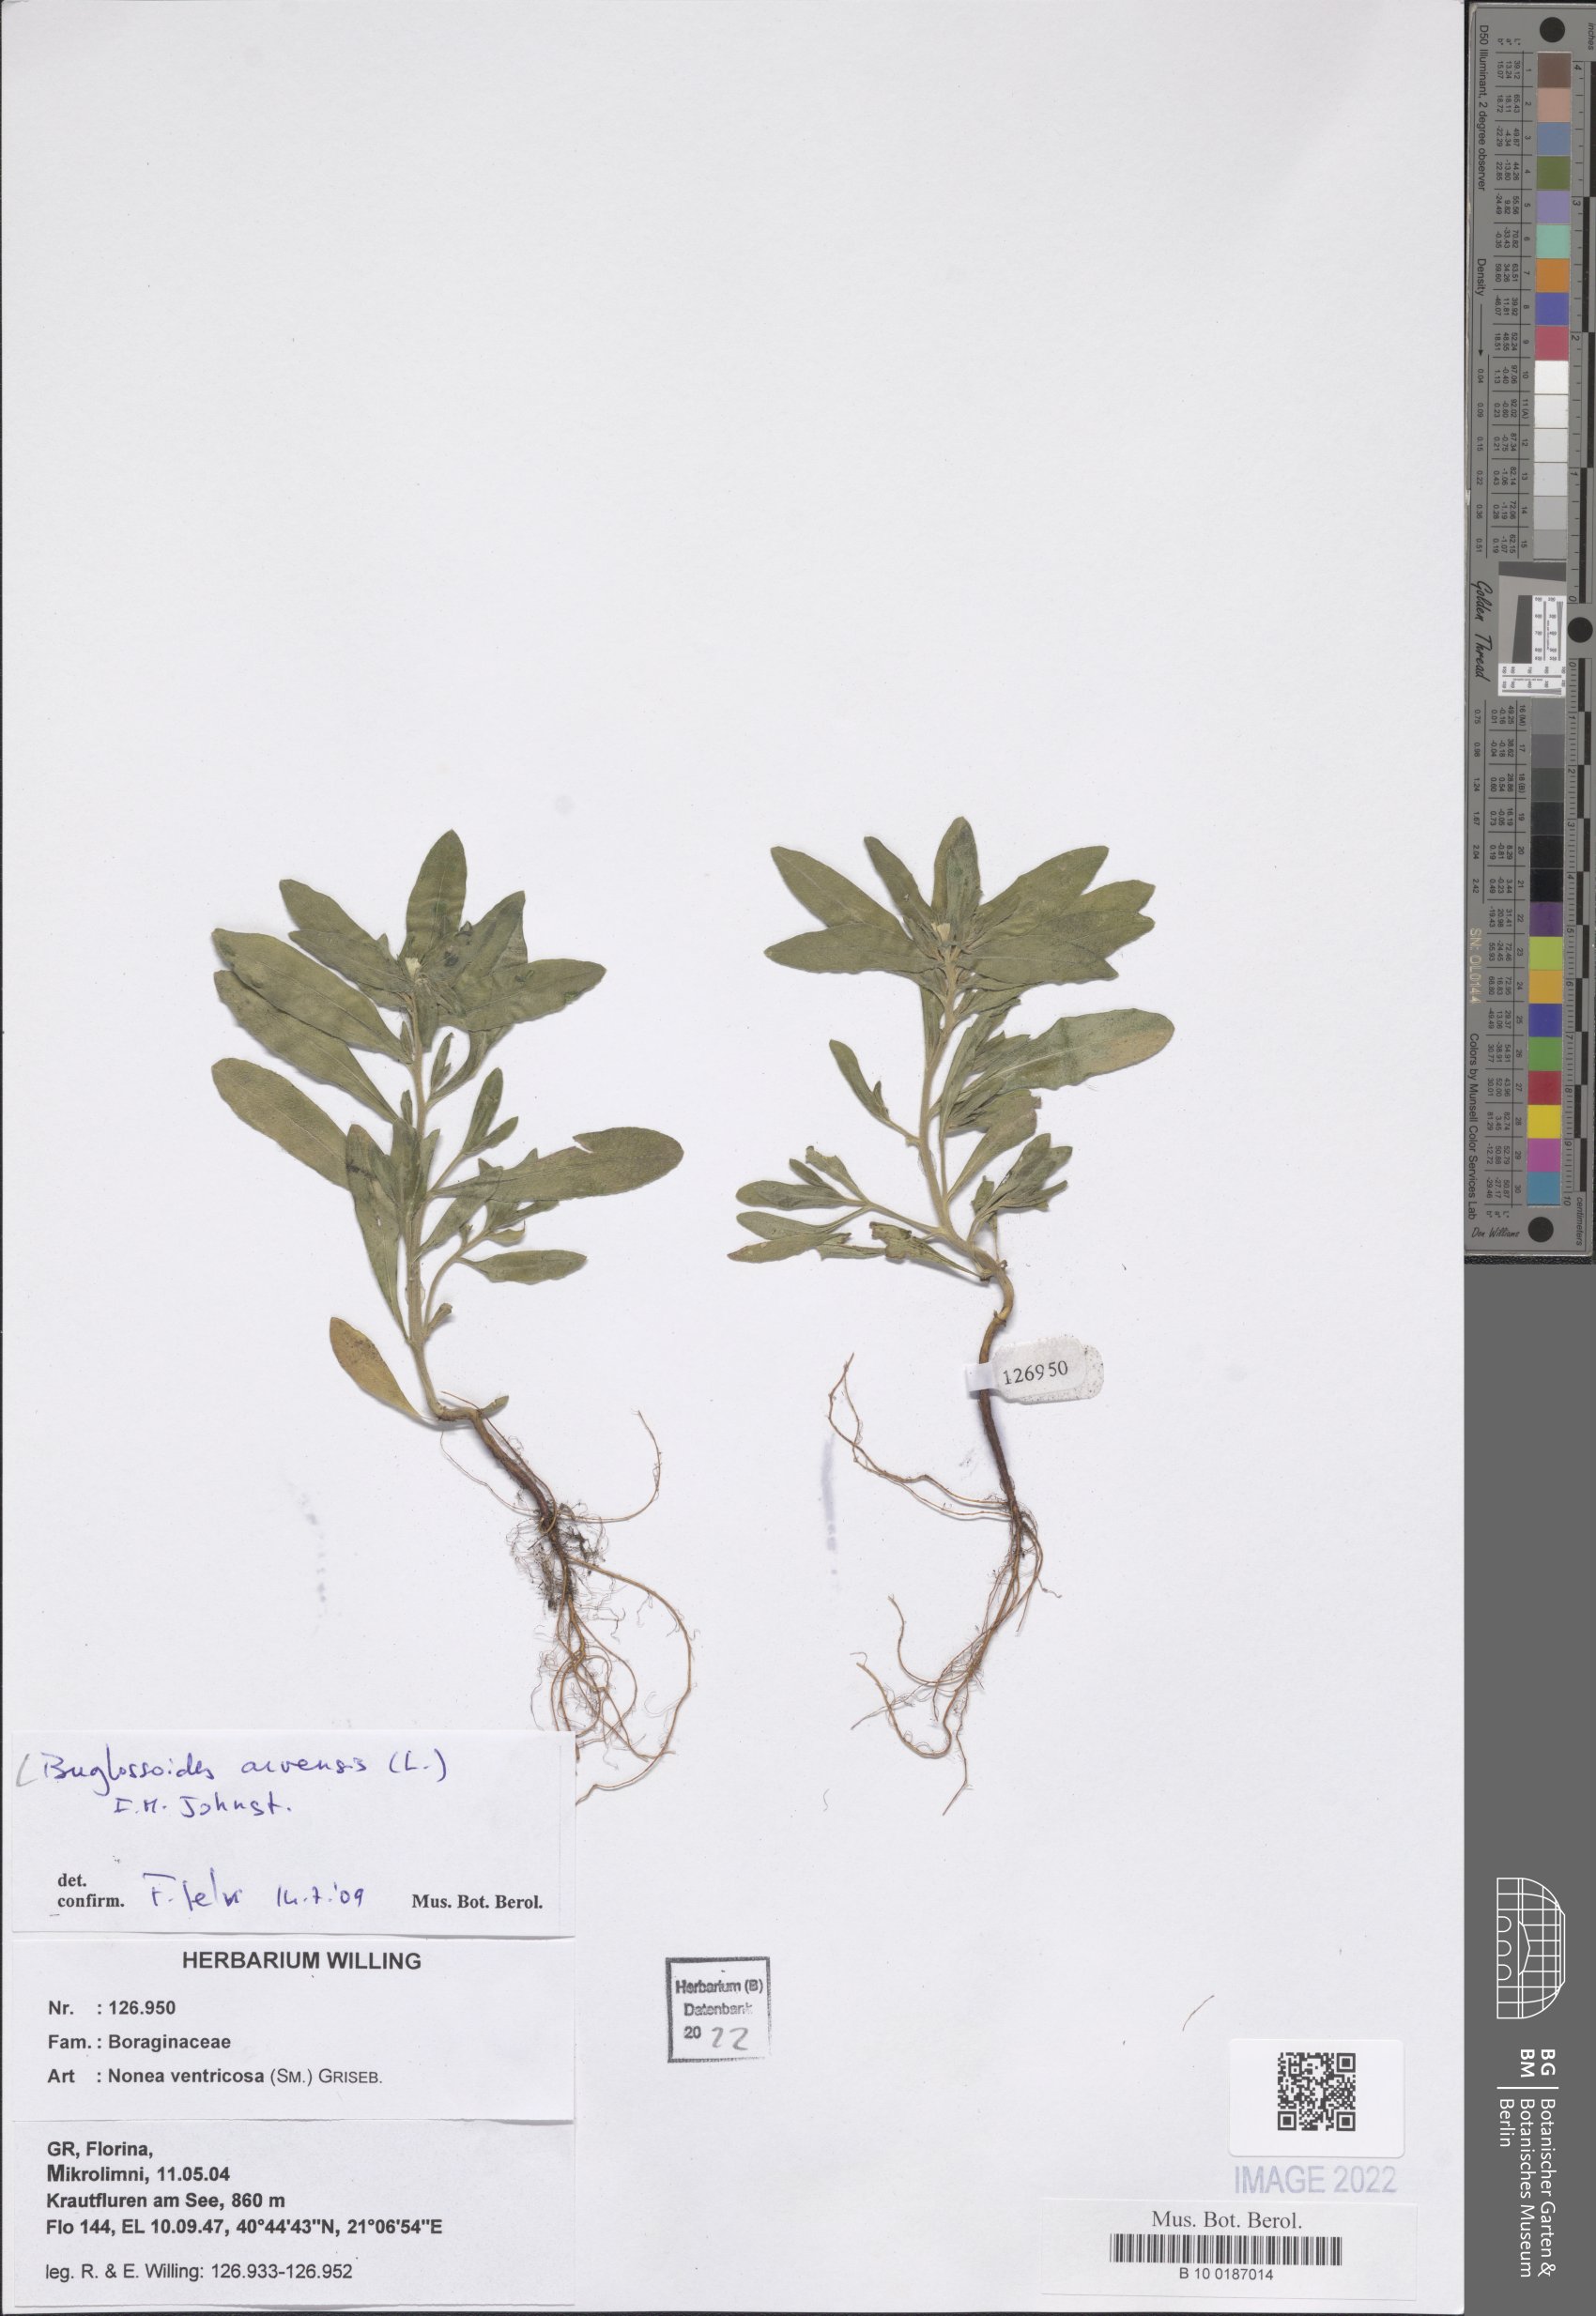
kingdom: Plantae
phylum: Tracheophyta
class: Magnoliopsida
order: Boraginales
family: Boraginaceae
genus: Buglossoides
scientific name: Buglossoides arvensis
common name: Corn gromwell
